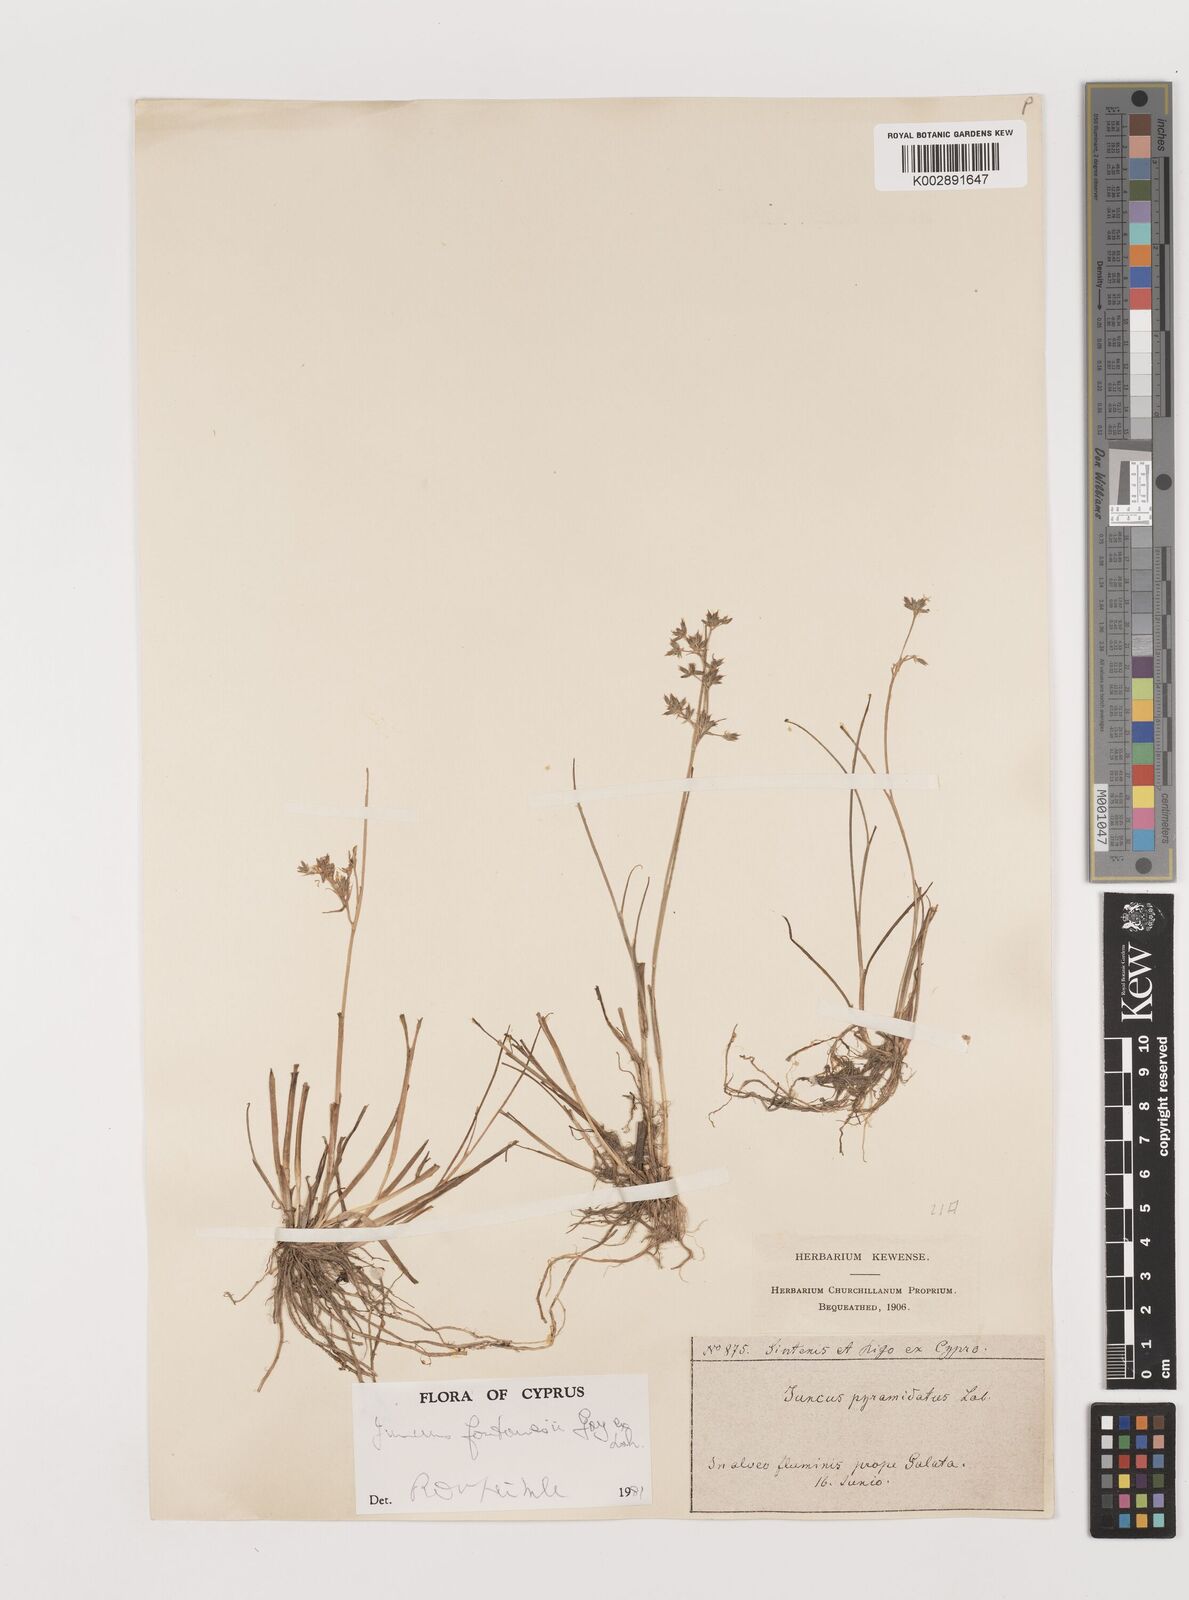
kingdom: Plantae
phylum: Tracheophyta
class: Liliopsida
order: Poales
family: Juncaceae
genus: Juncus
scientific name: Juncus fontanesii
